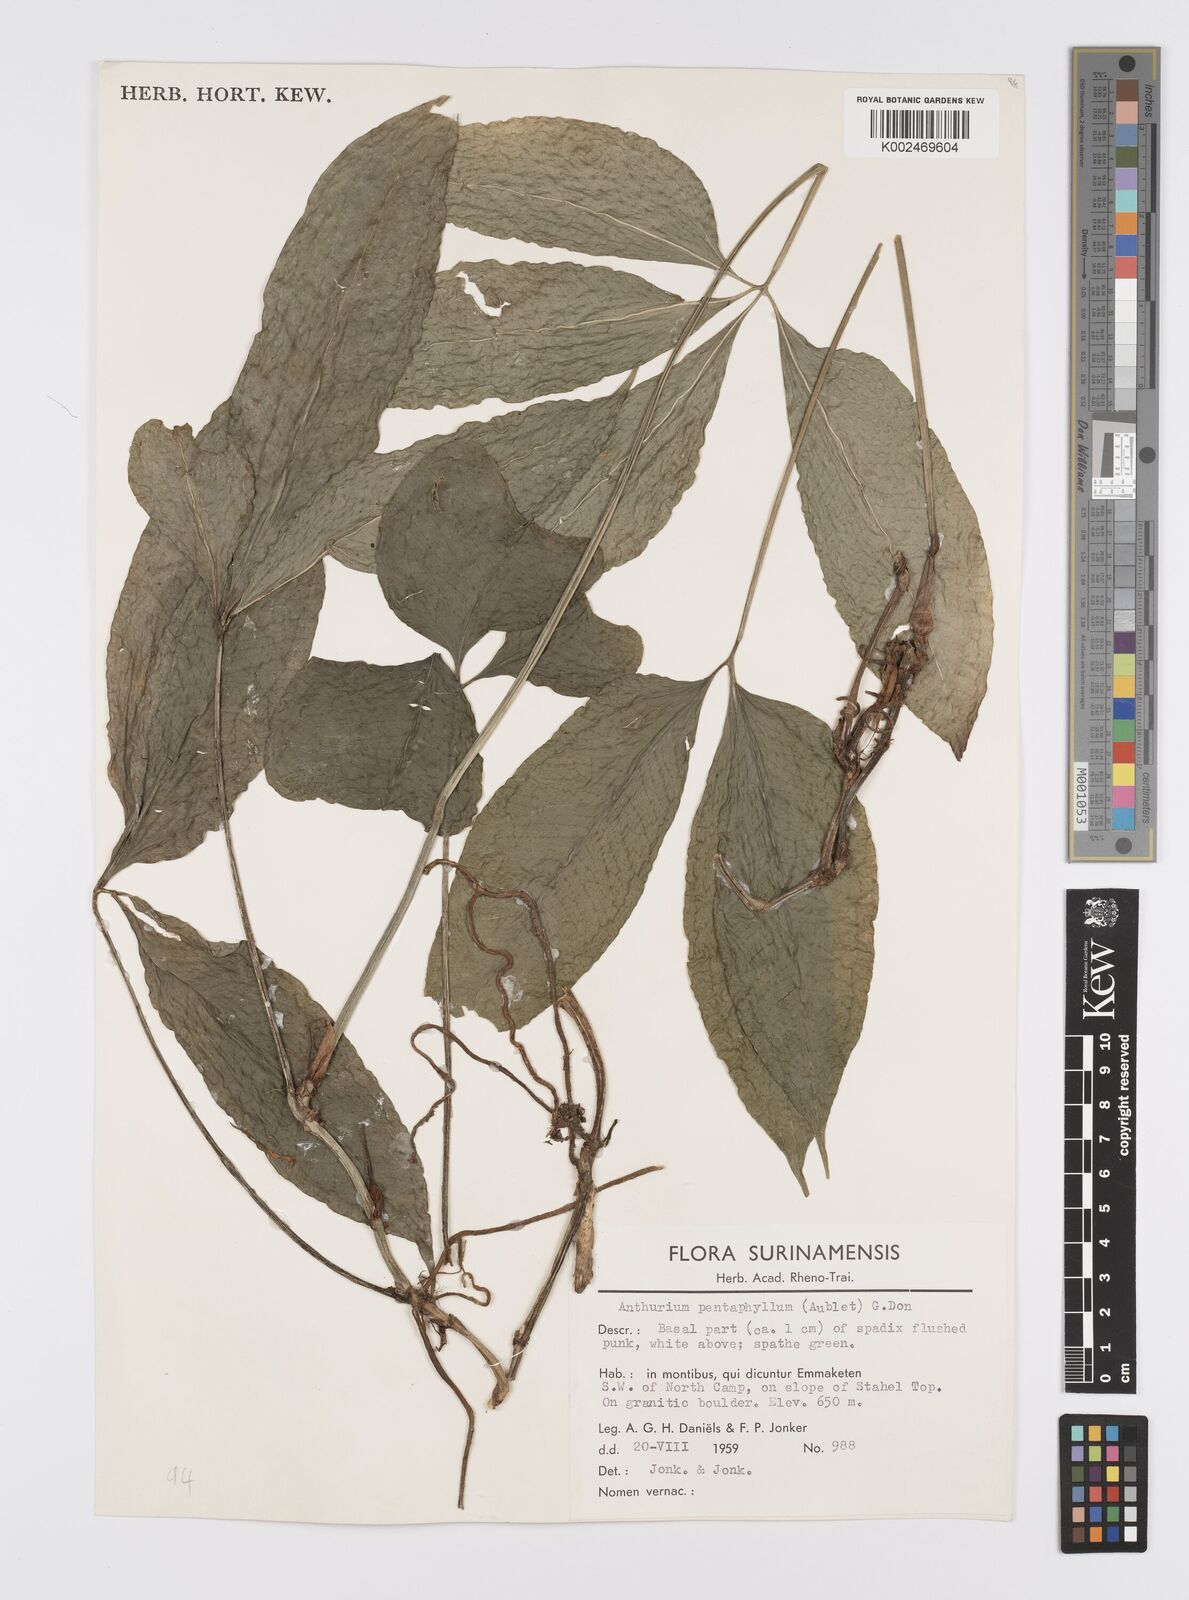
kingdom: Plantae
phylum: Tracheophyta
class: Liliopsida
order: Alismatales
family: Araceae
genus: Anthurium
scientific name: Anthurium pentaphyllum
